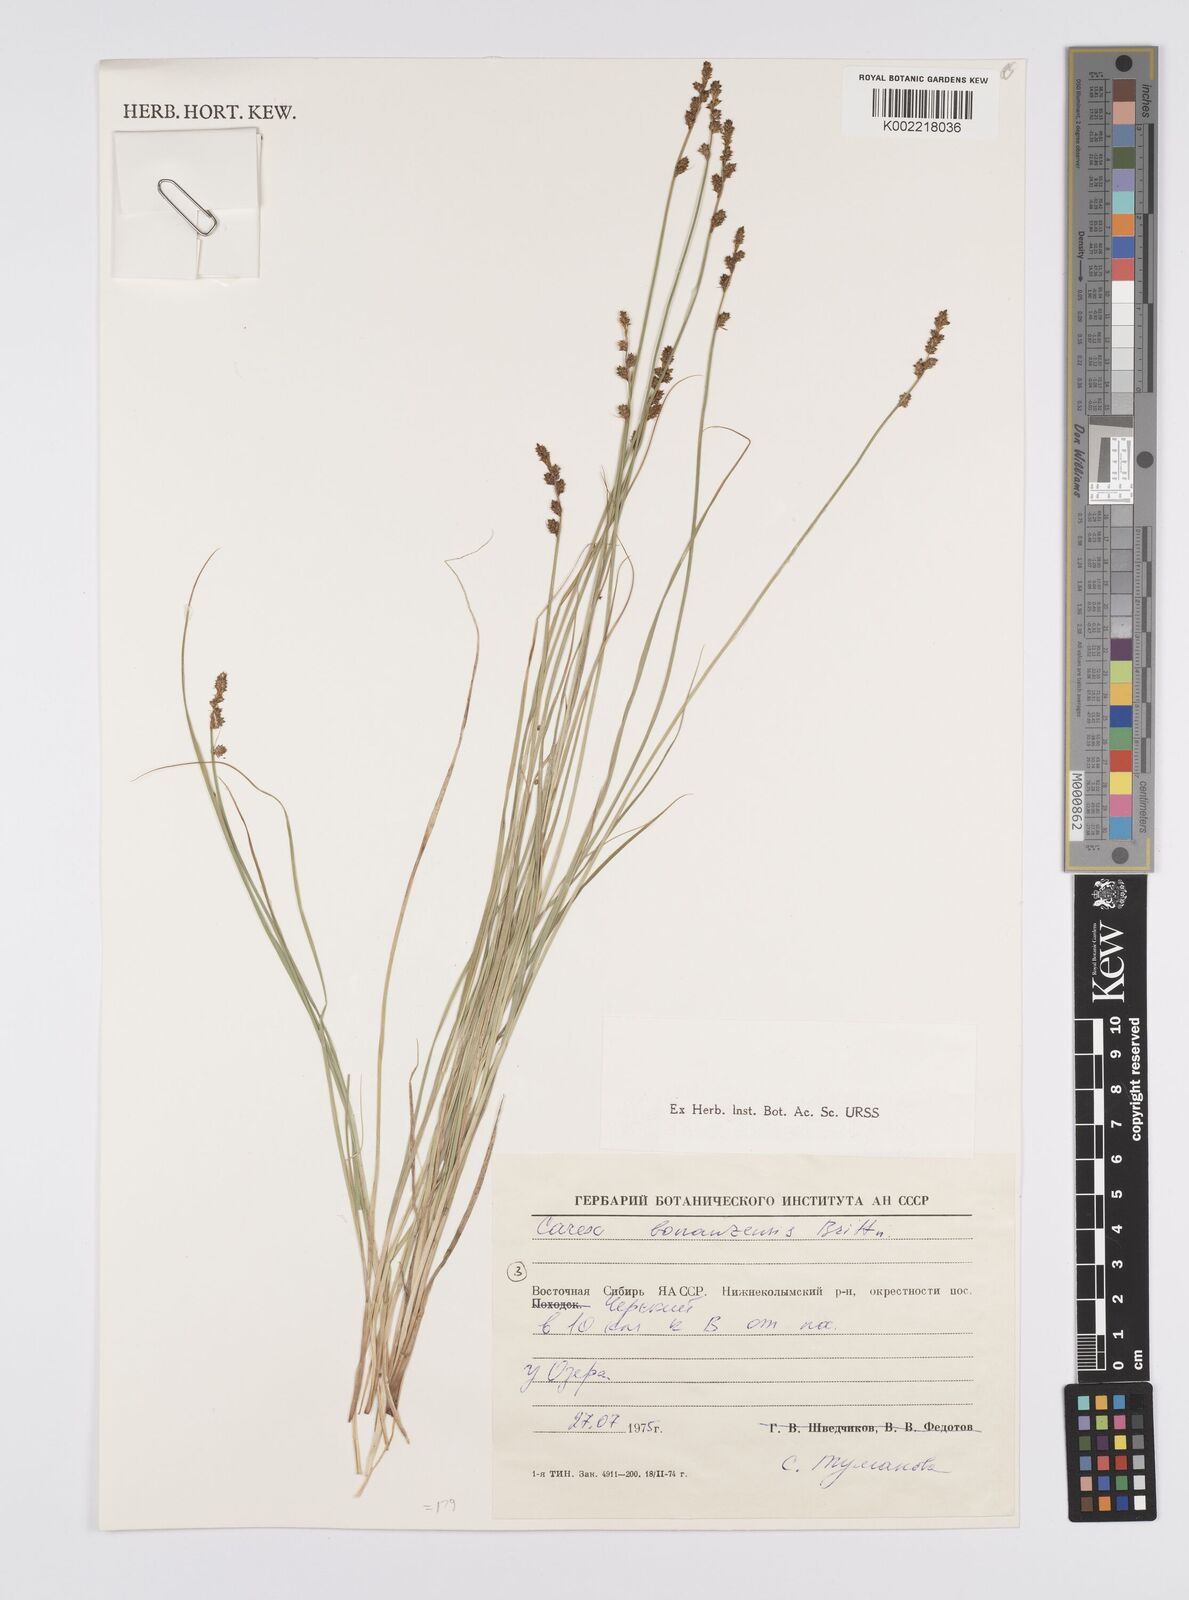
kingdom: Plantae
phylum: Tracheophyta
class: Liliopsida
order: Poales
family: Cyperaceae
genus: Carex
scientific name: Carex bonanzensis
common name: Yukon sedge
